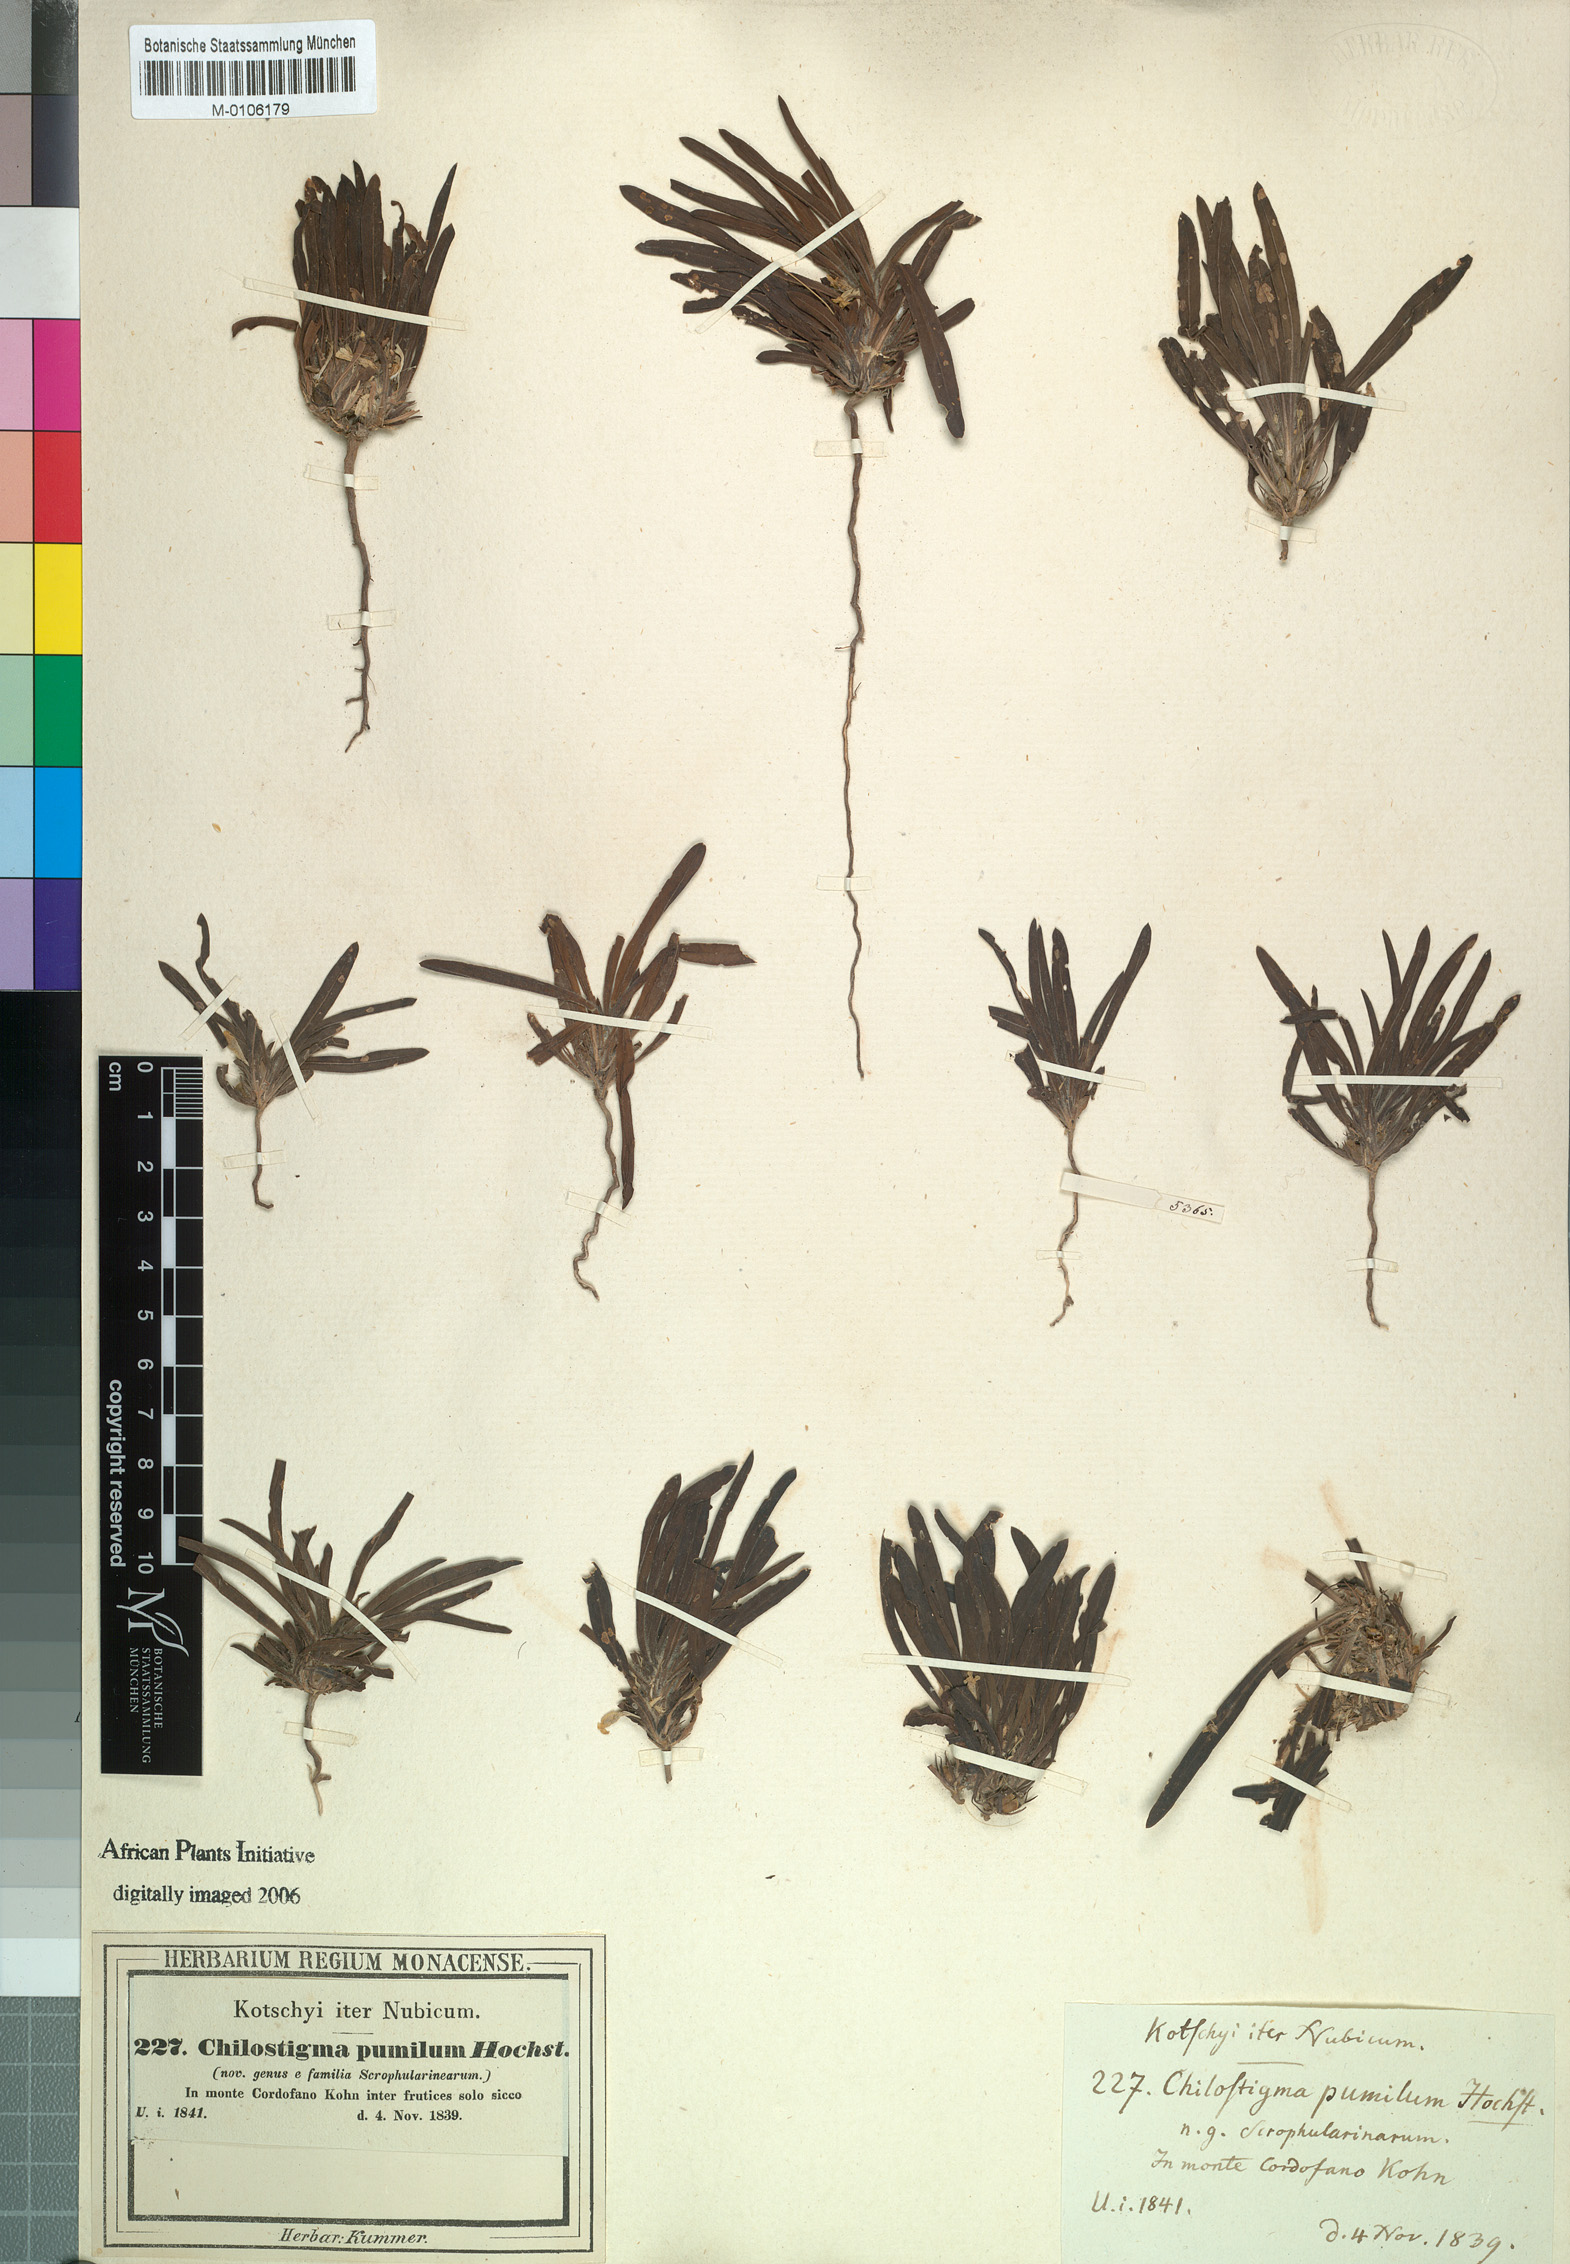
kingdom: Plantae
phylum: Tracheophyta
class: Magnoliopsida
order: Lamiales
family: Scrophulariaceae
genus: Aptosimum
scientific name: Aptosimum pumilum
